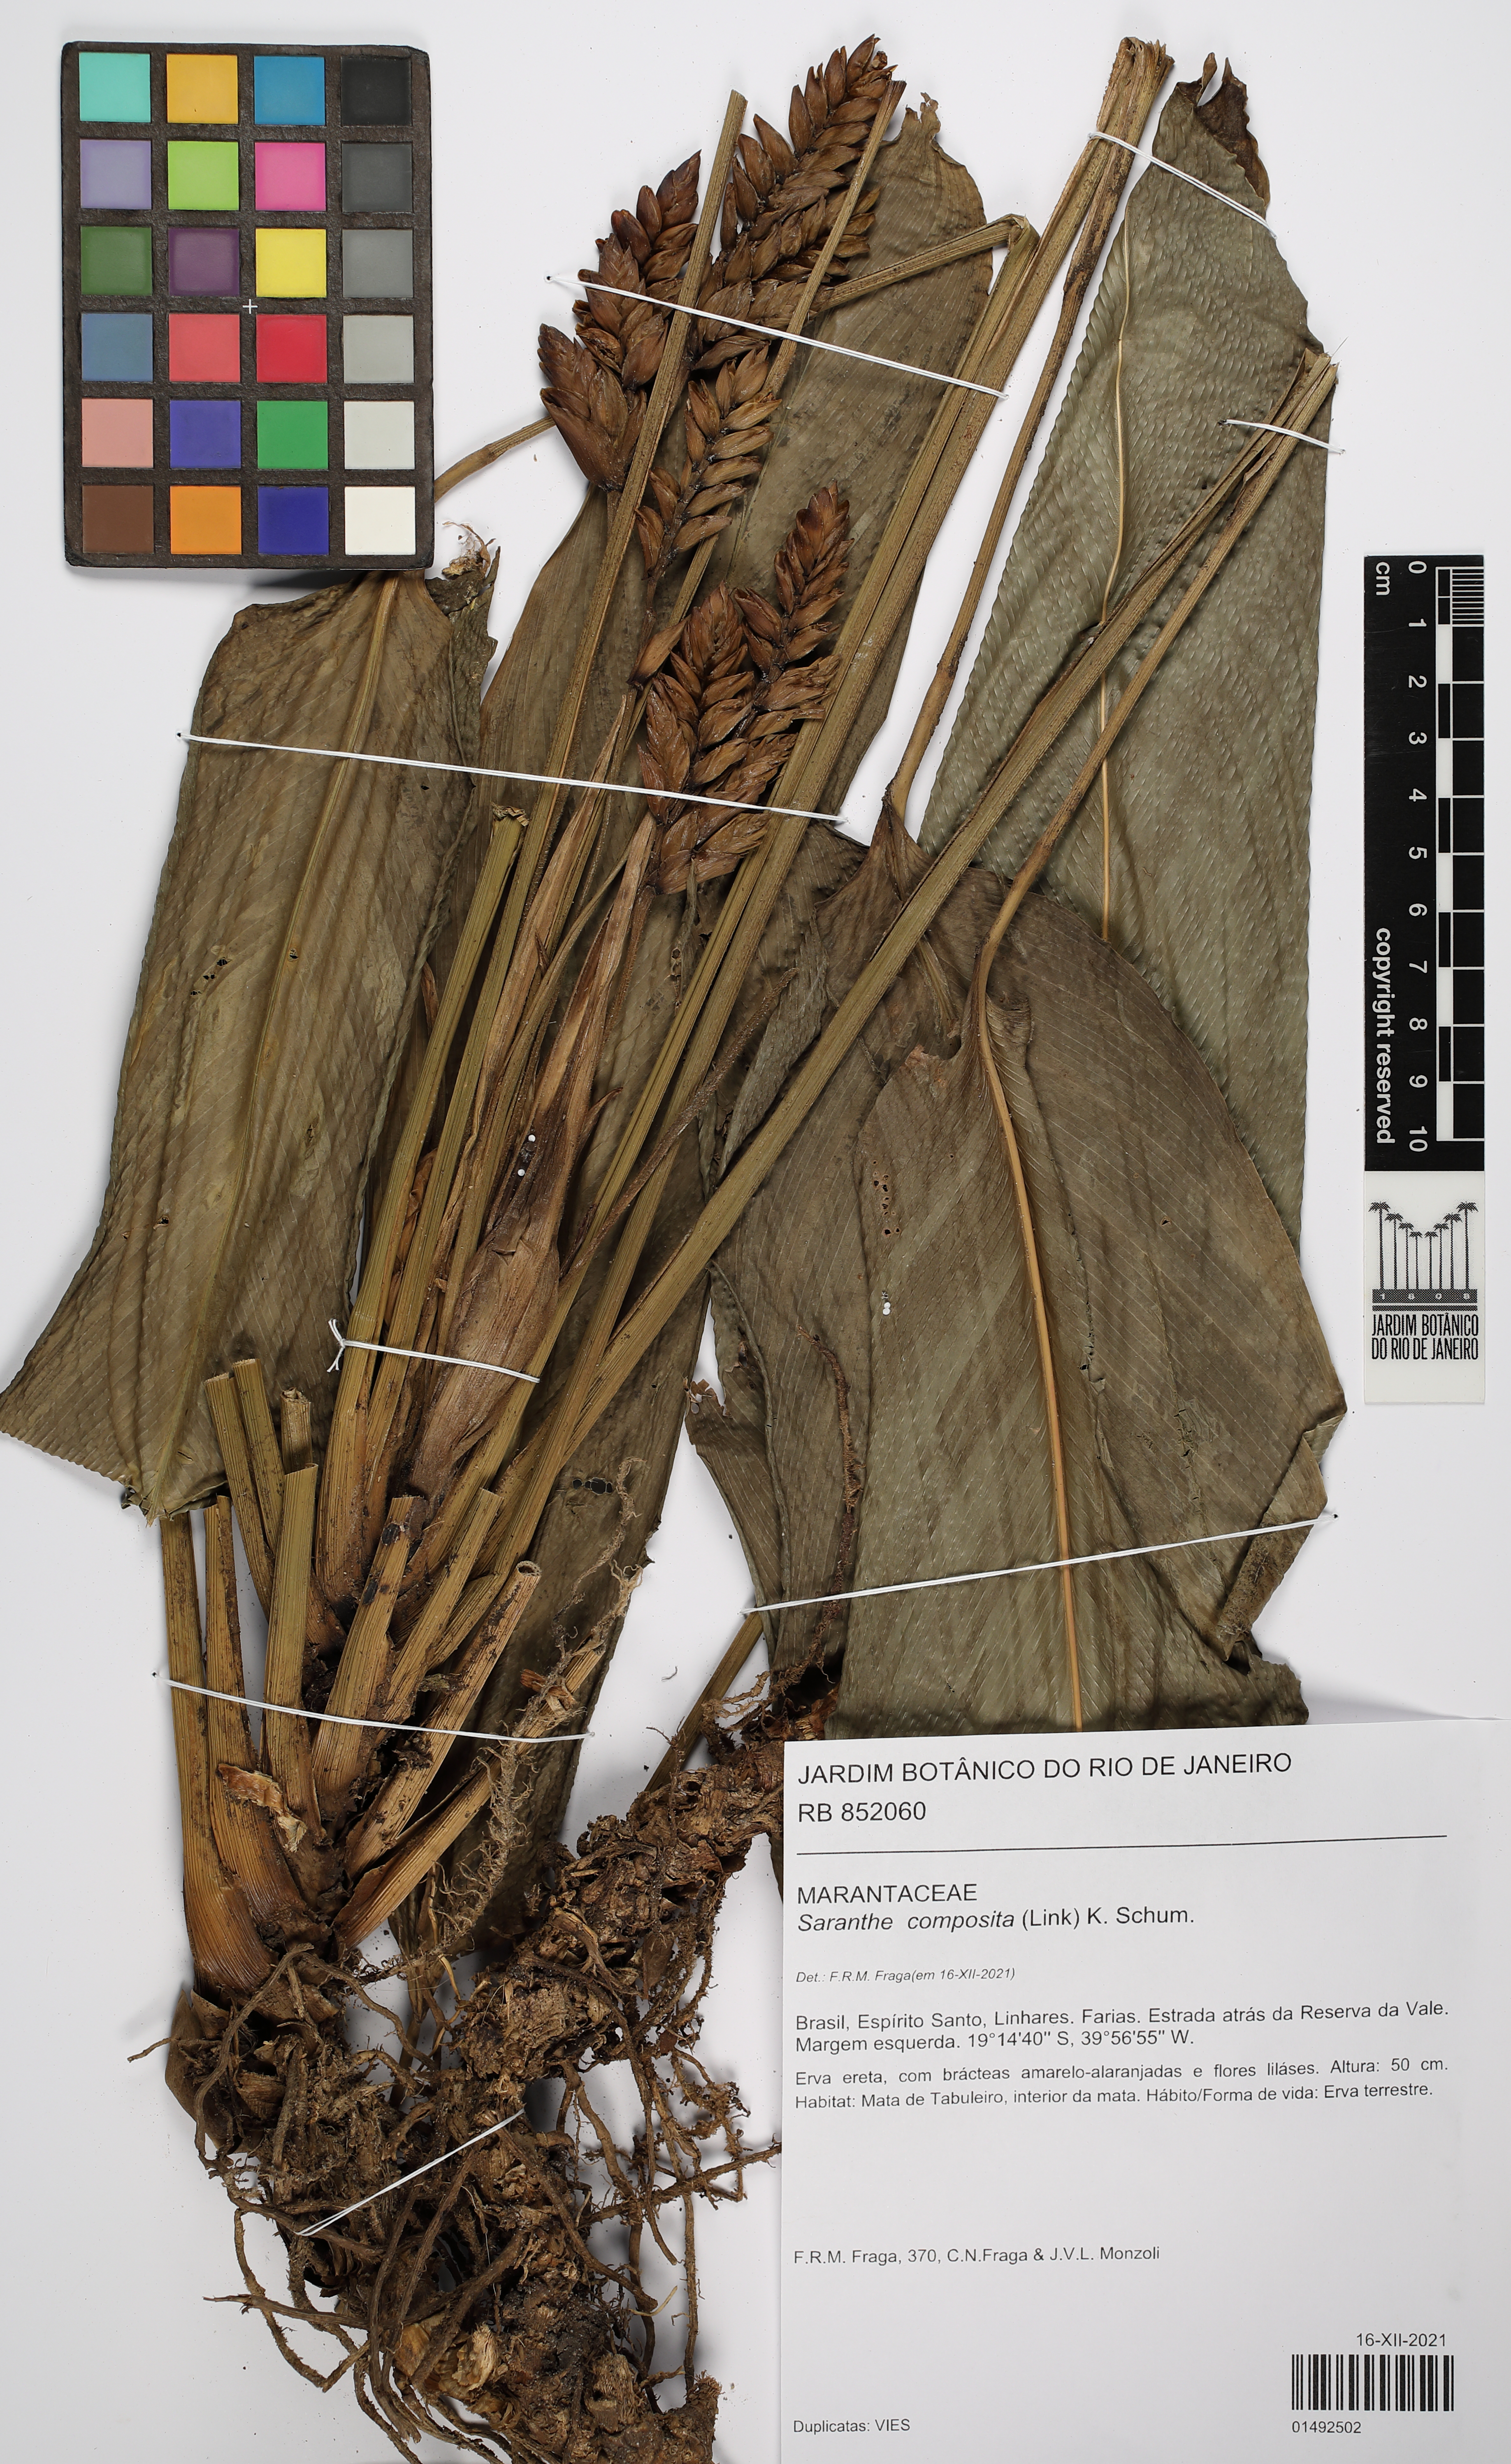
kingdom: Plantae
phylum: Tracheophyta
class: Liliopsida
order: Zingiberales
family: Marantaceae
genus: Saranthe
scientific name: Saranthe composita
